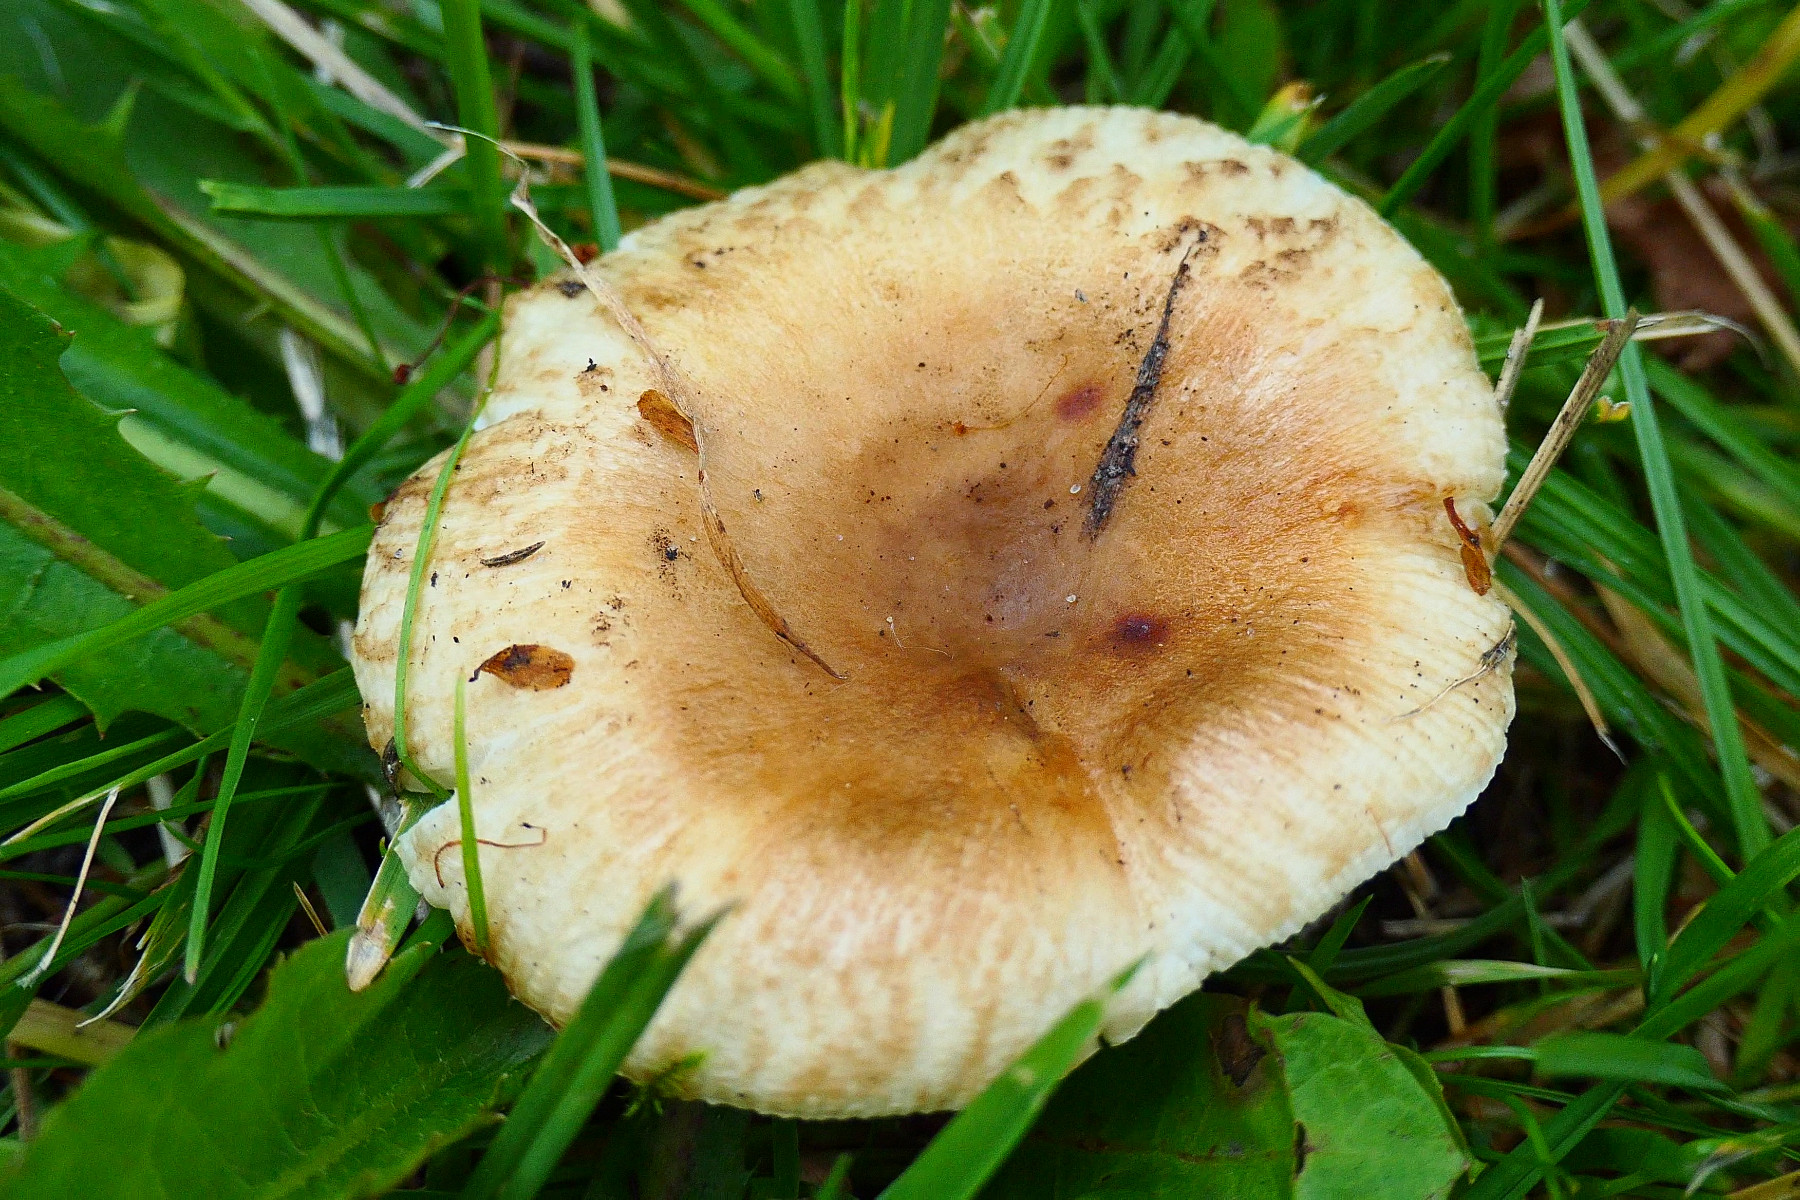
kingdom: Fungi
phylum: Basidiomycota
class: Agaricomycetes
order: Russulales
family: Russulaceae
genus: Russula
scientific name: Russula
